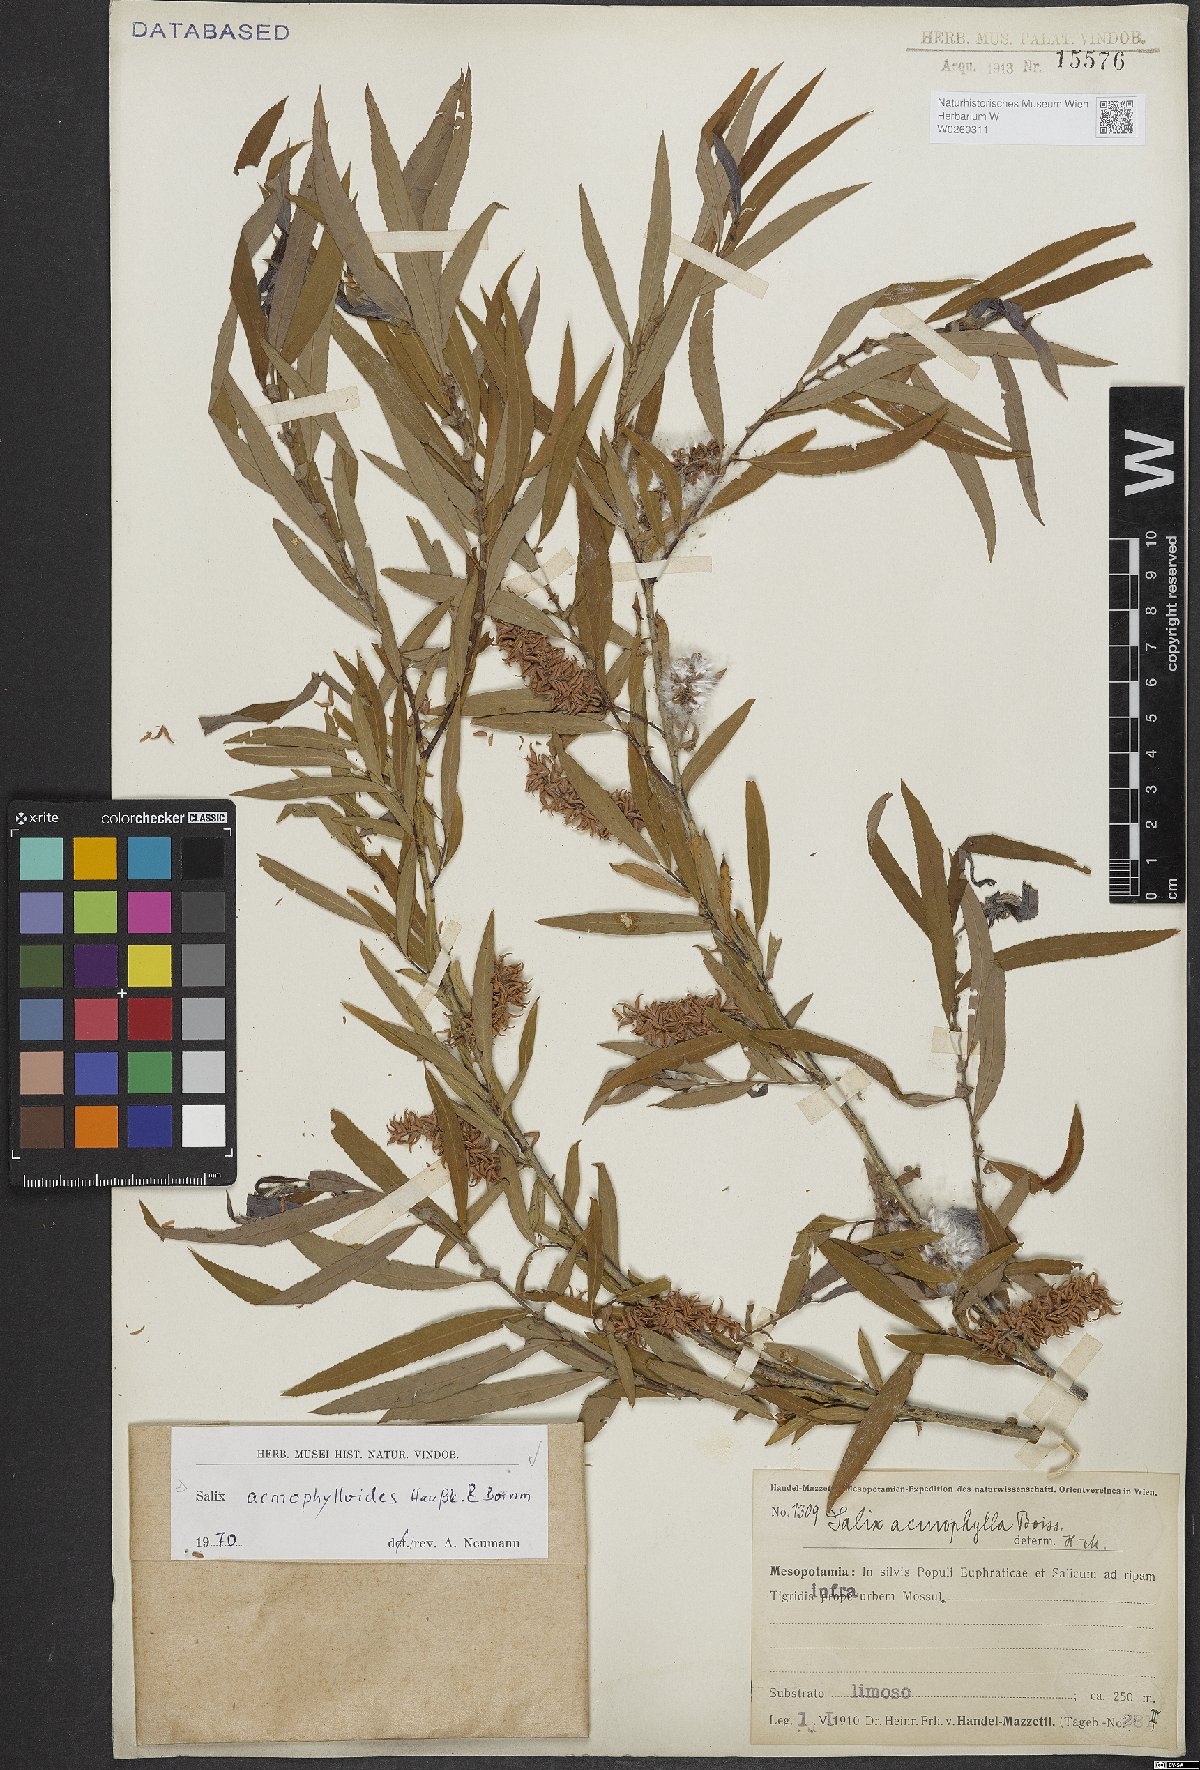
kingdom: Plantae
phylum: Tracheophyta
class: Magnoliopsida
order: Malpighiales
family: Salicaceae
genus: Salix
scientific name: Salix
